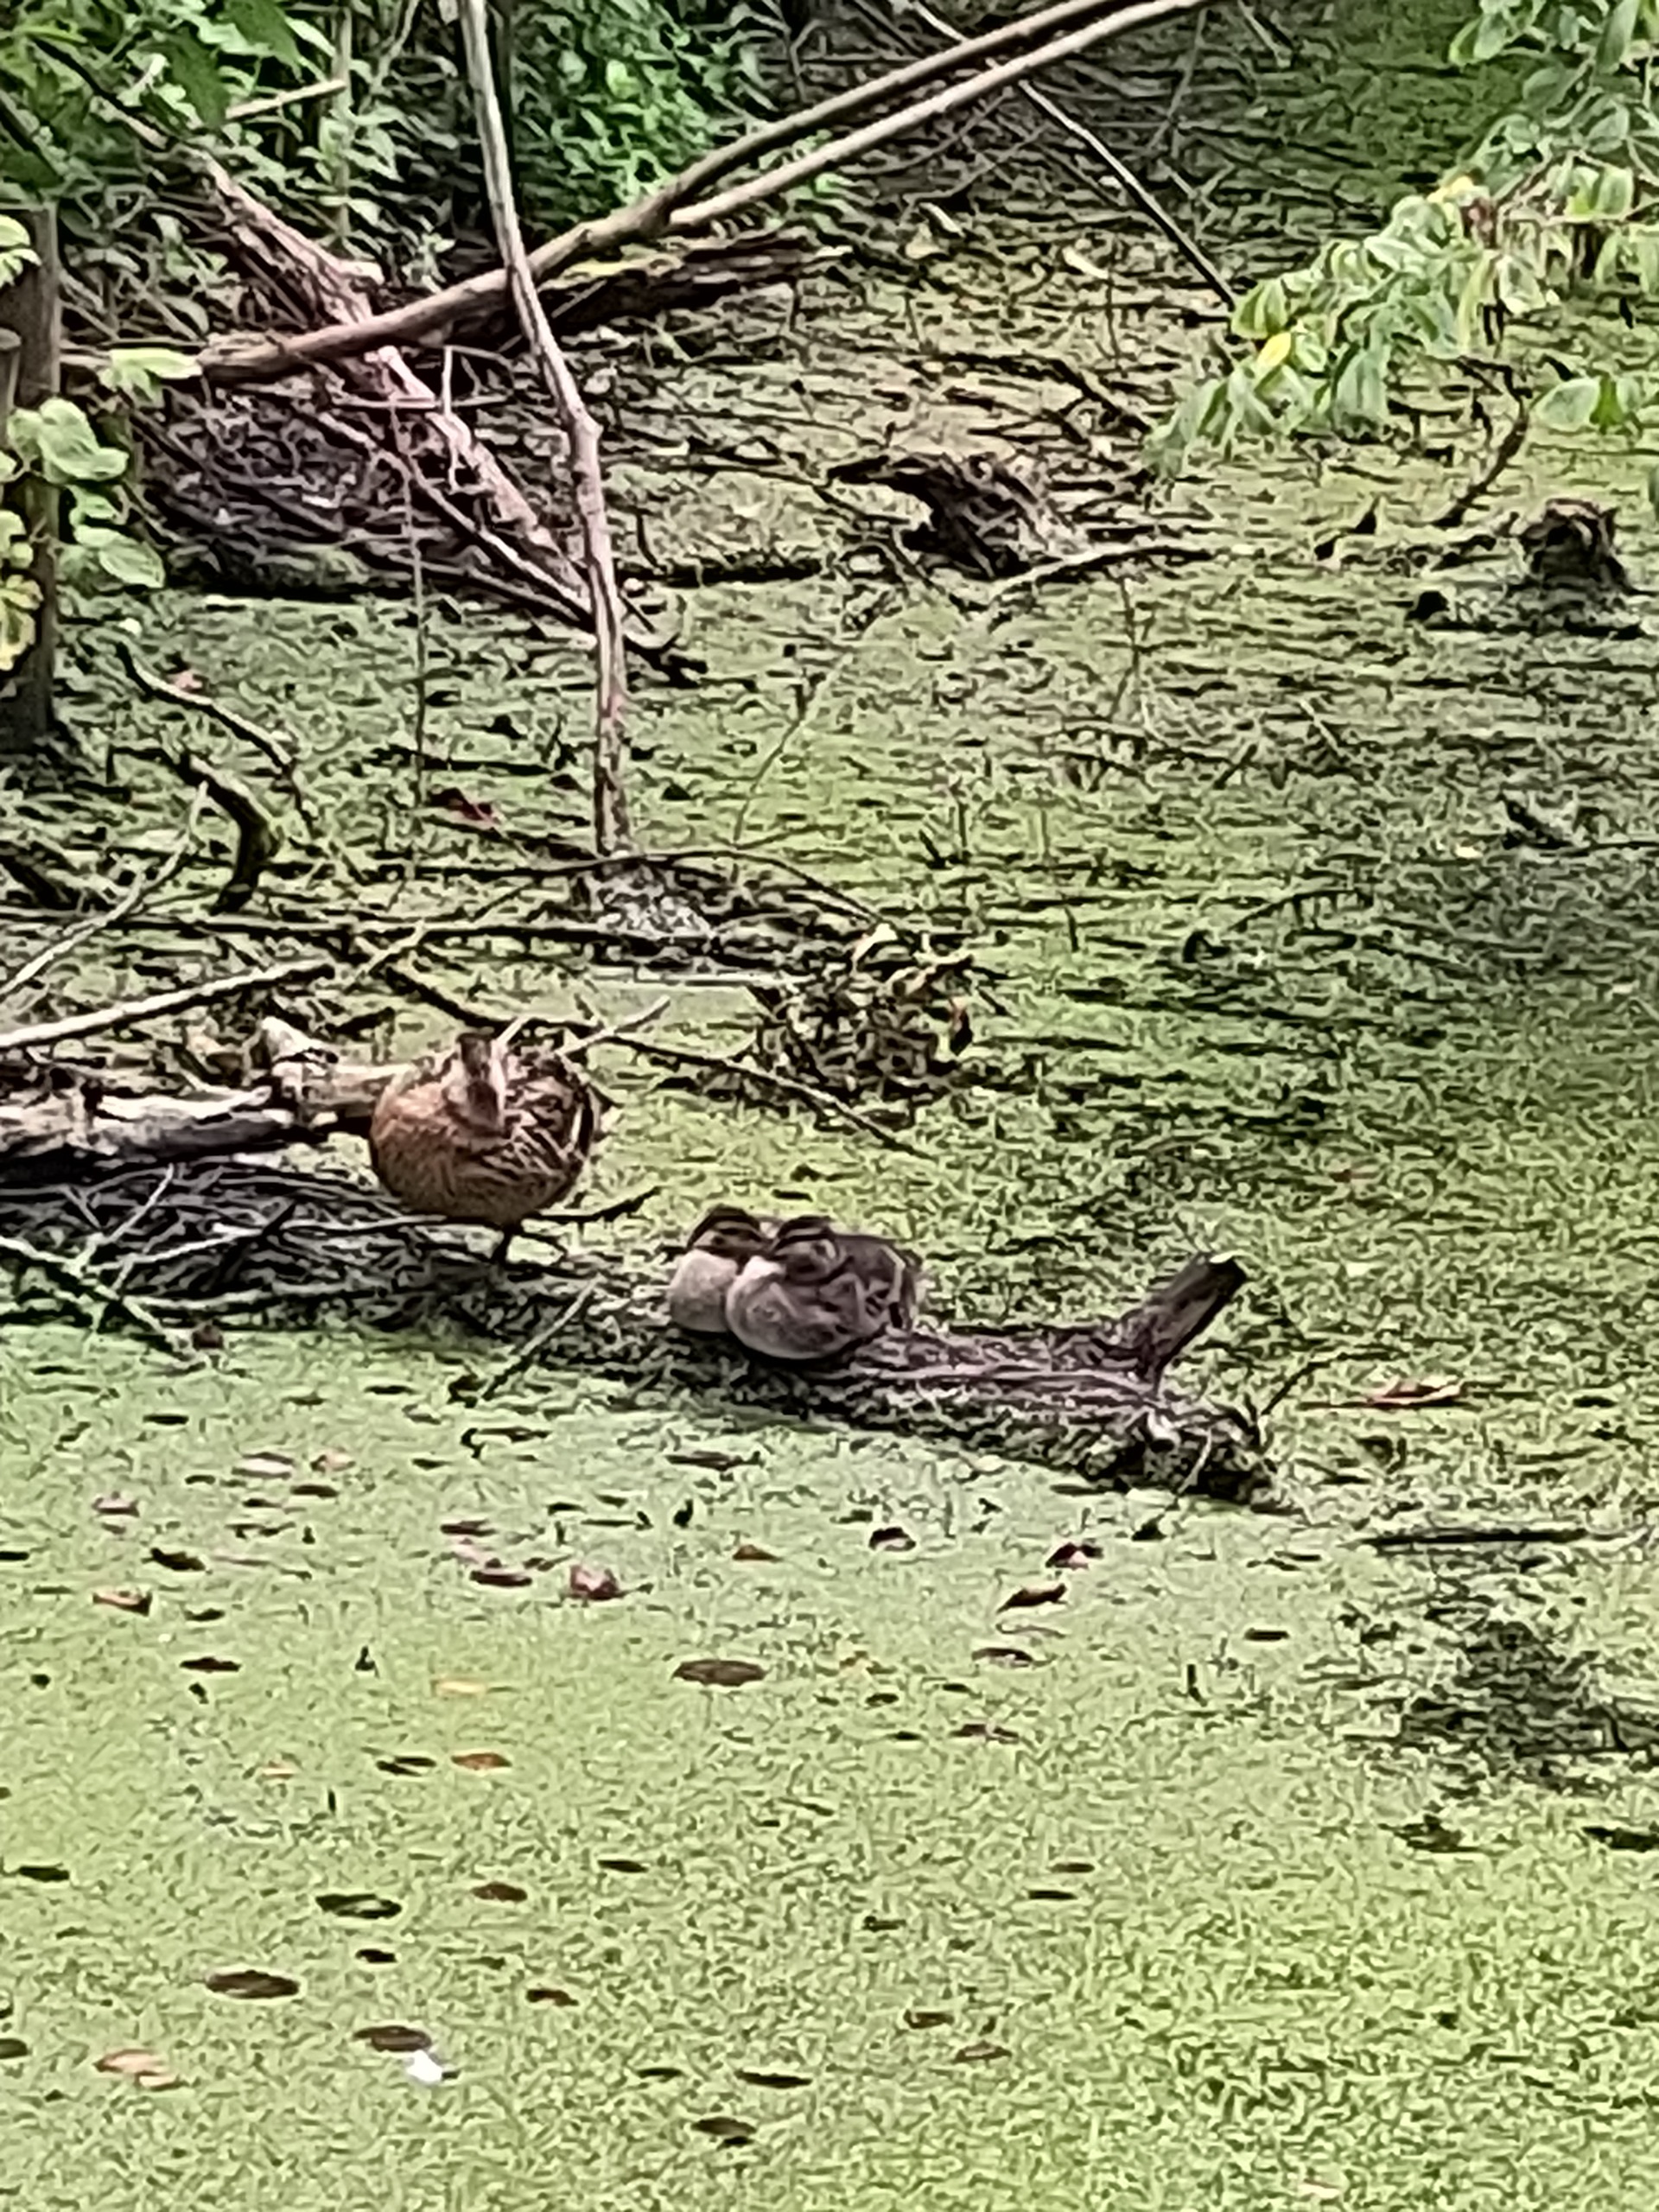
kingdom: Animalia
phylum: Chordata
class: Aves
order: Anseriformes
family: Anatidae
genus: Anas
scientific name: Anas platyrhynchos
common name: Gråand
